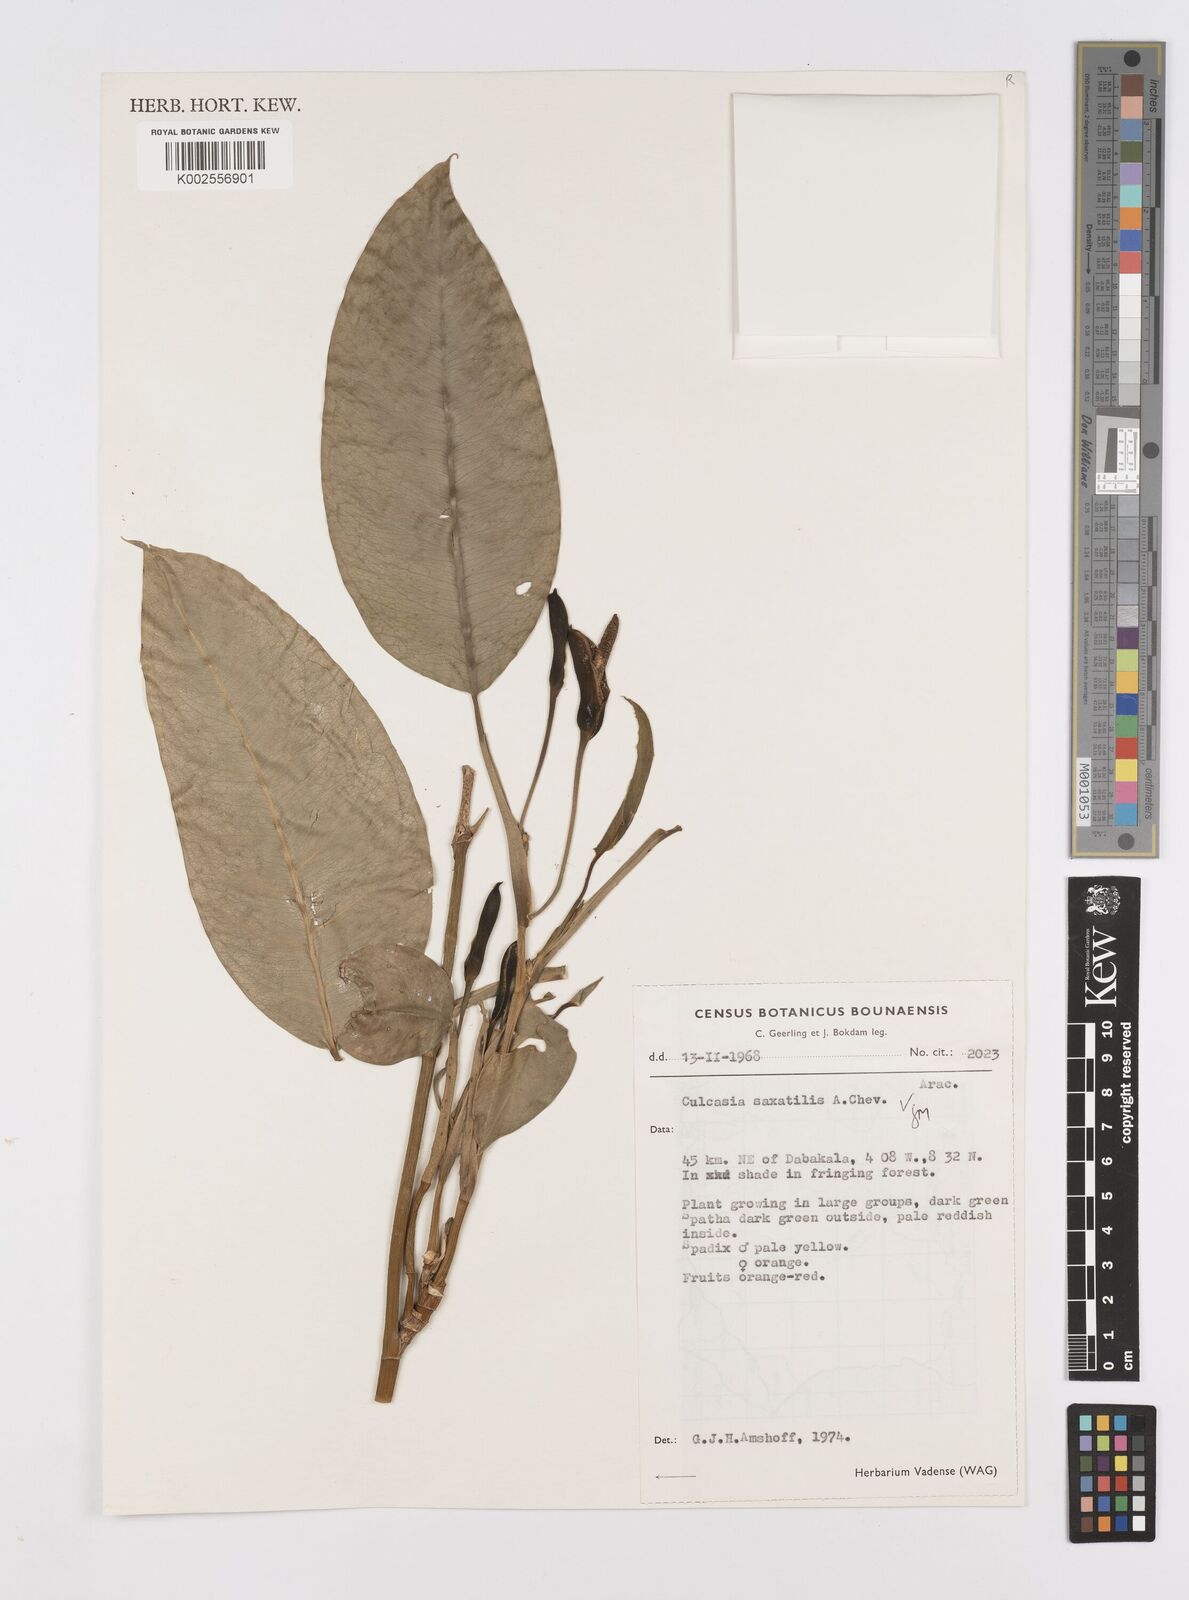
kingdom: Plantae
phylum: Tracheophyta
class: Liliopsida
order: Alismatales
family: Araceae
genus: Culcasia
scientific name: Culcasia scandens
